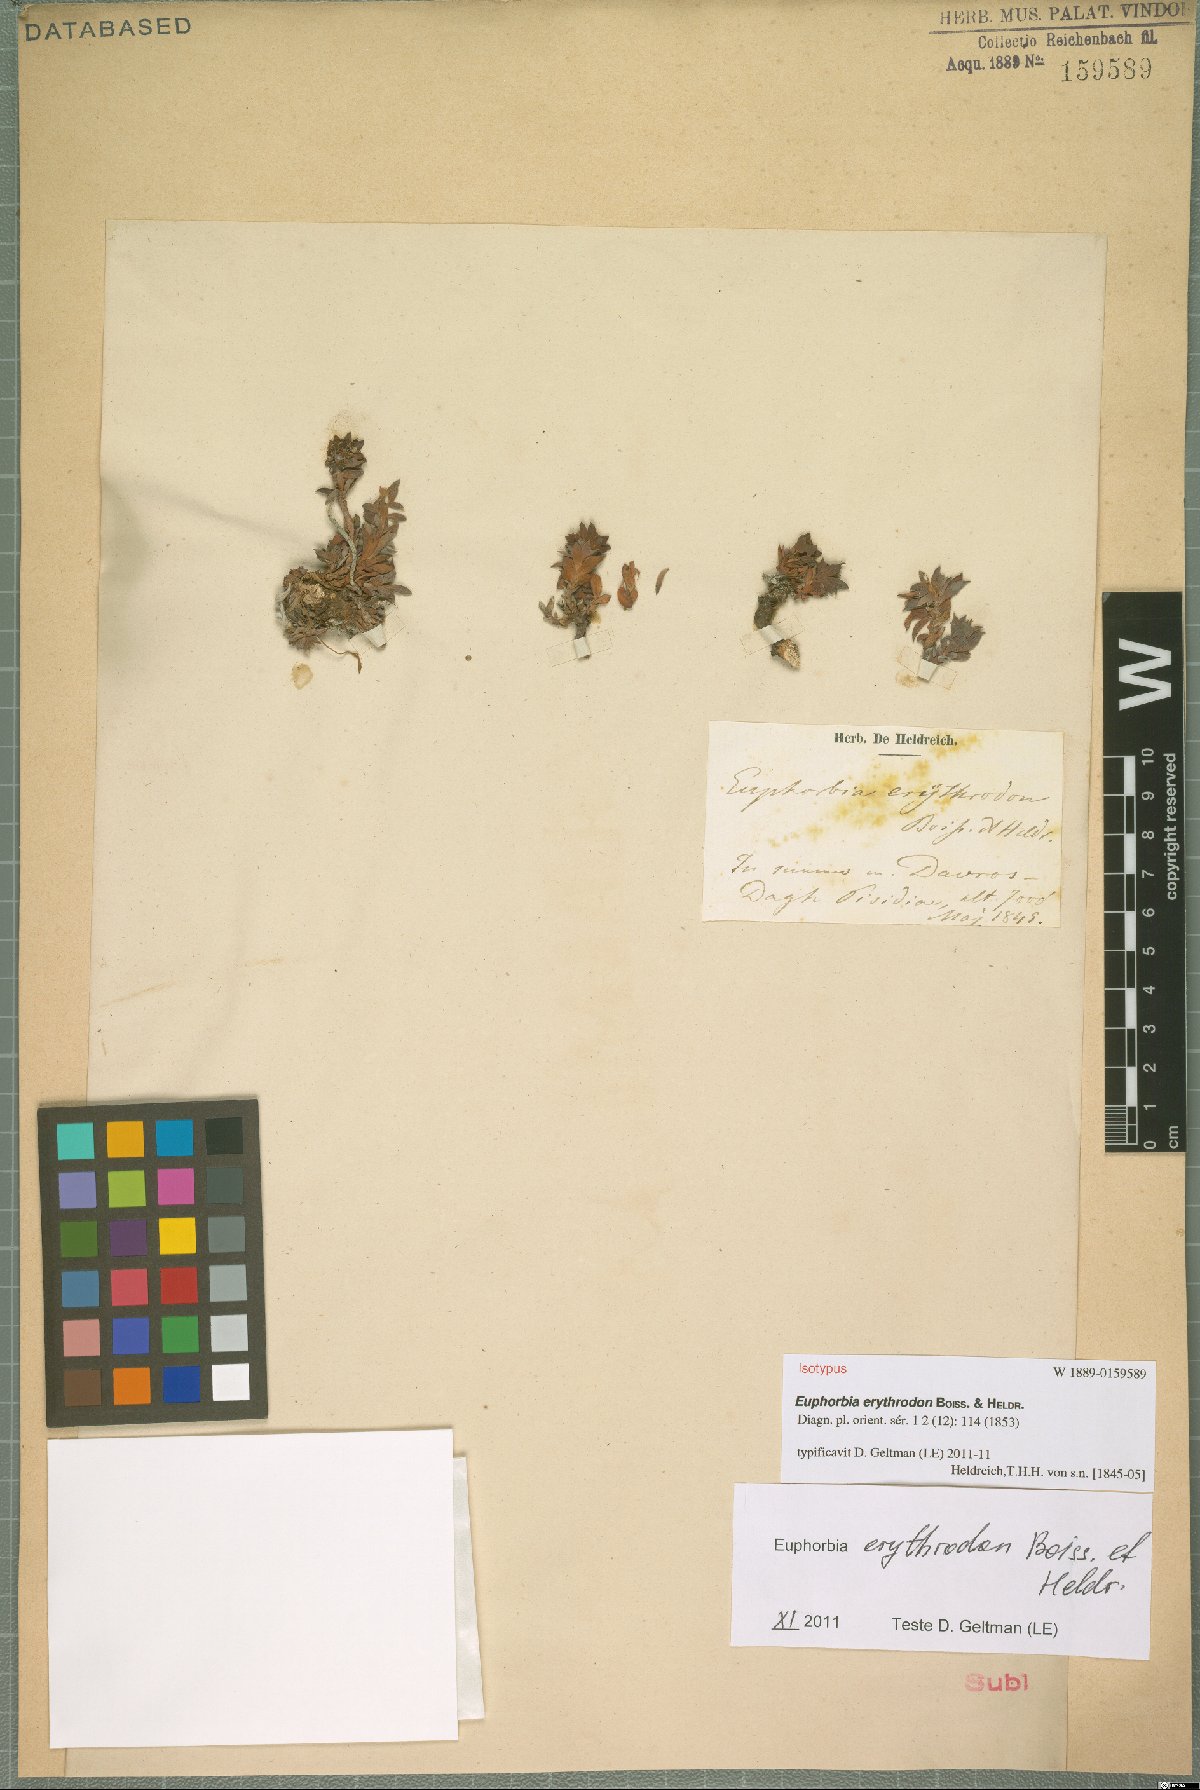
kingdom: Plantae
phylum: Tracheophyta
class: Magnoliopsida
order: Malpighiales
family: Euphorbiaceae
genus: Euphorbia
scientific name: Euphorbia erythrodon
